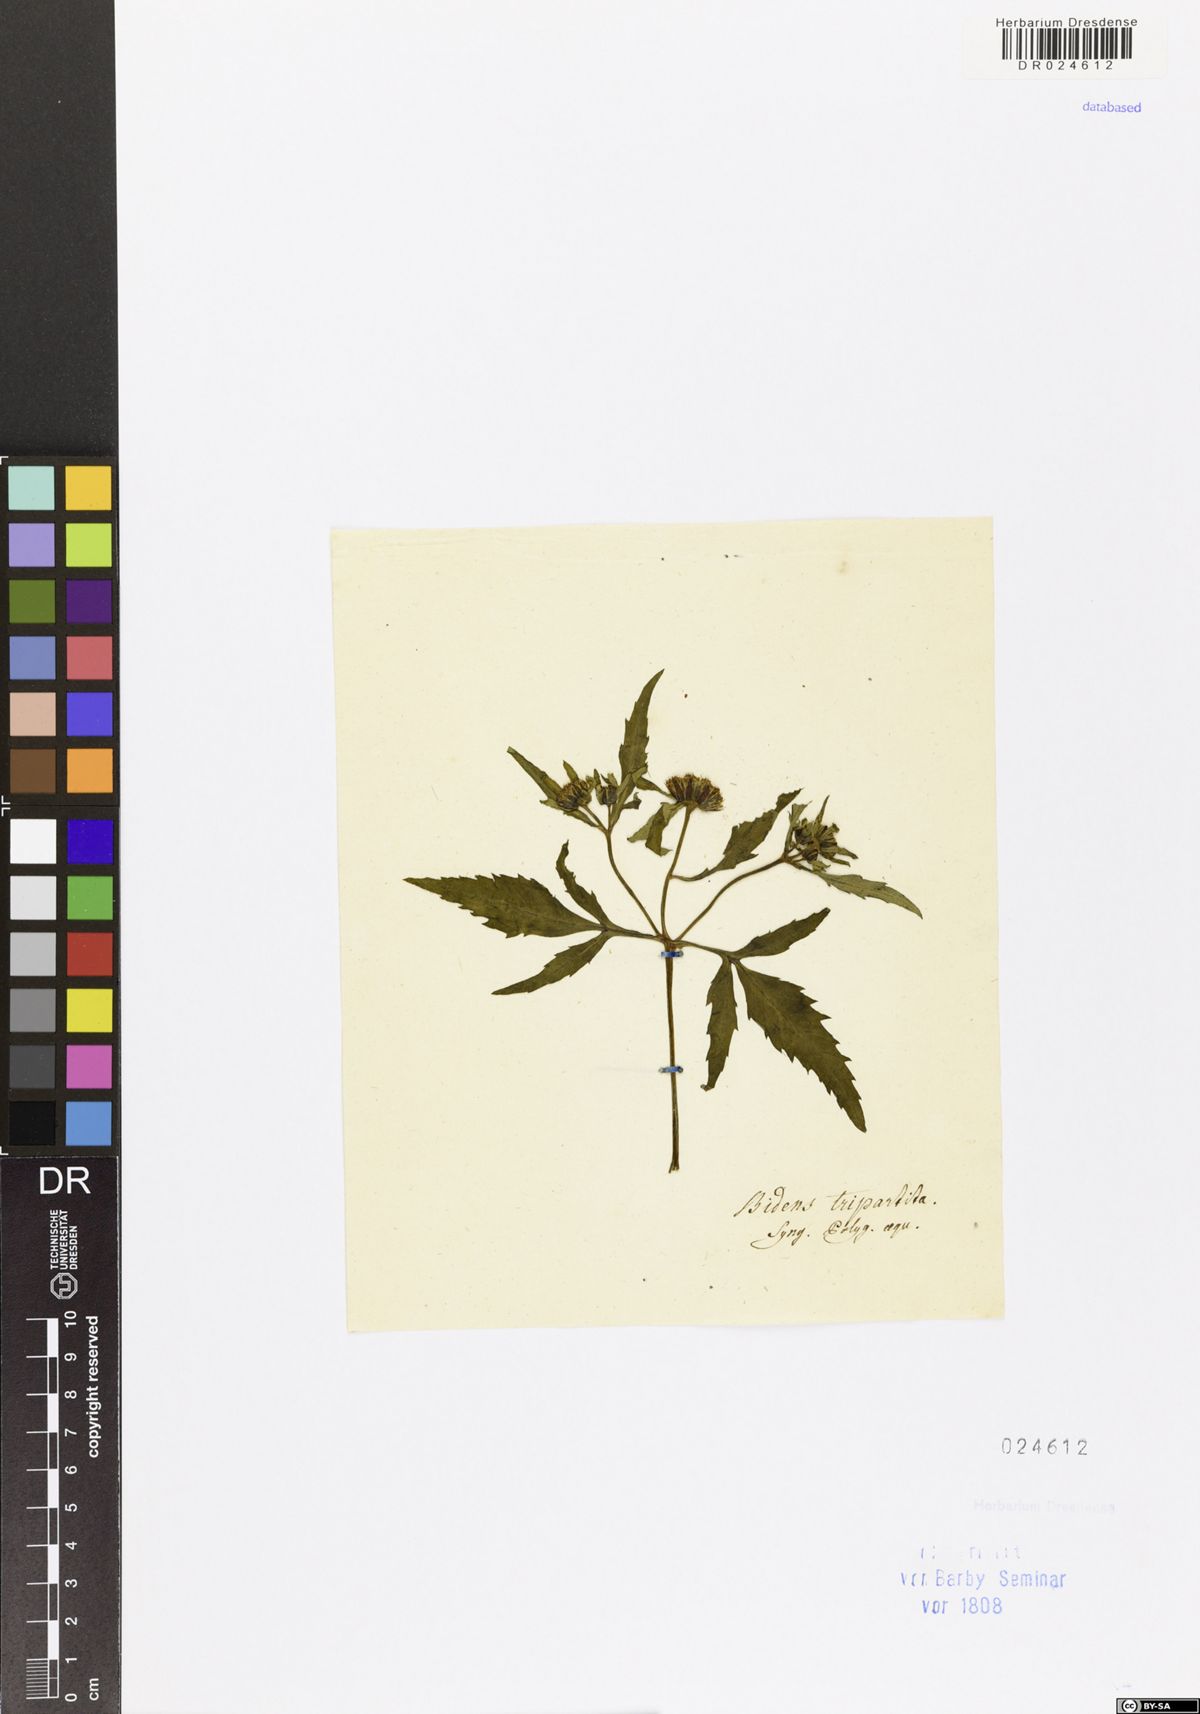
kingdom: Plantae
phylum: Tracheophyta
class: Magnoliopsida
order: Asterales
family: Asteraceae
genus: Bidens
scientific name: Bidens tripartita
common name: Trifid bur-marigold
